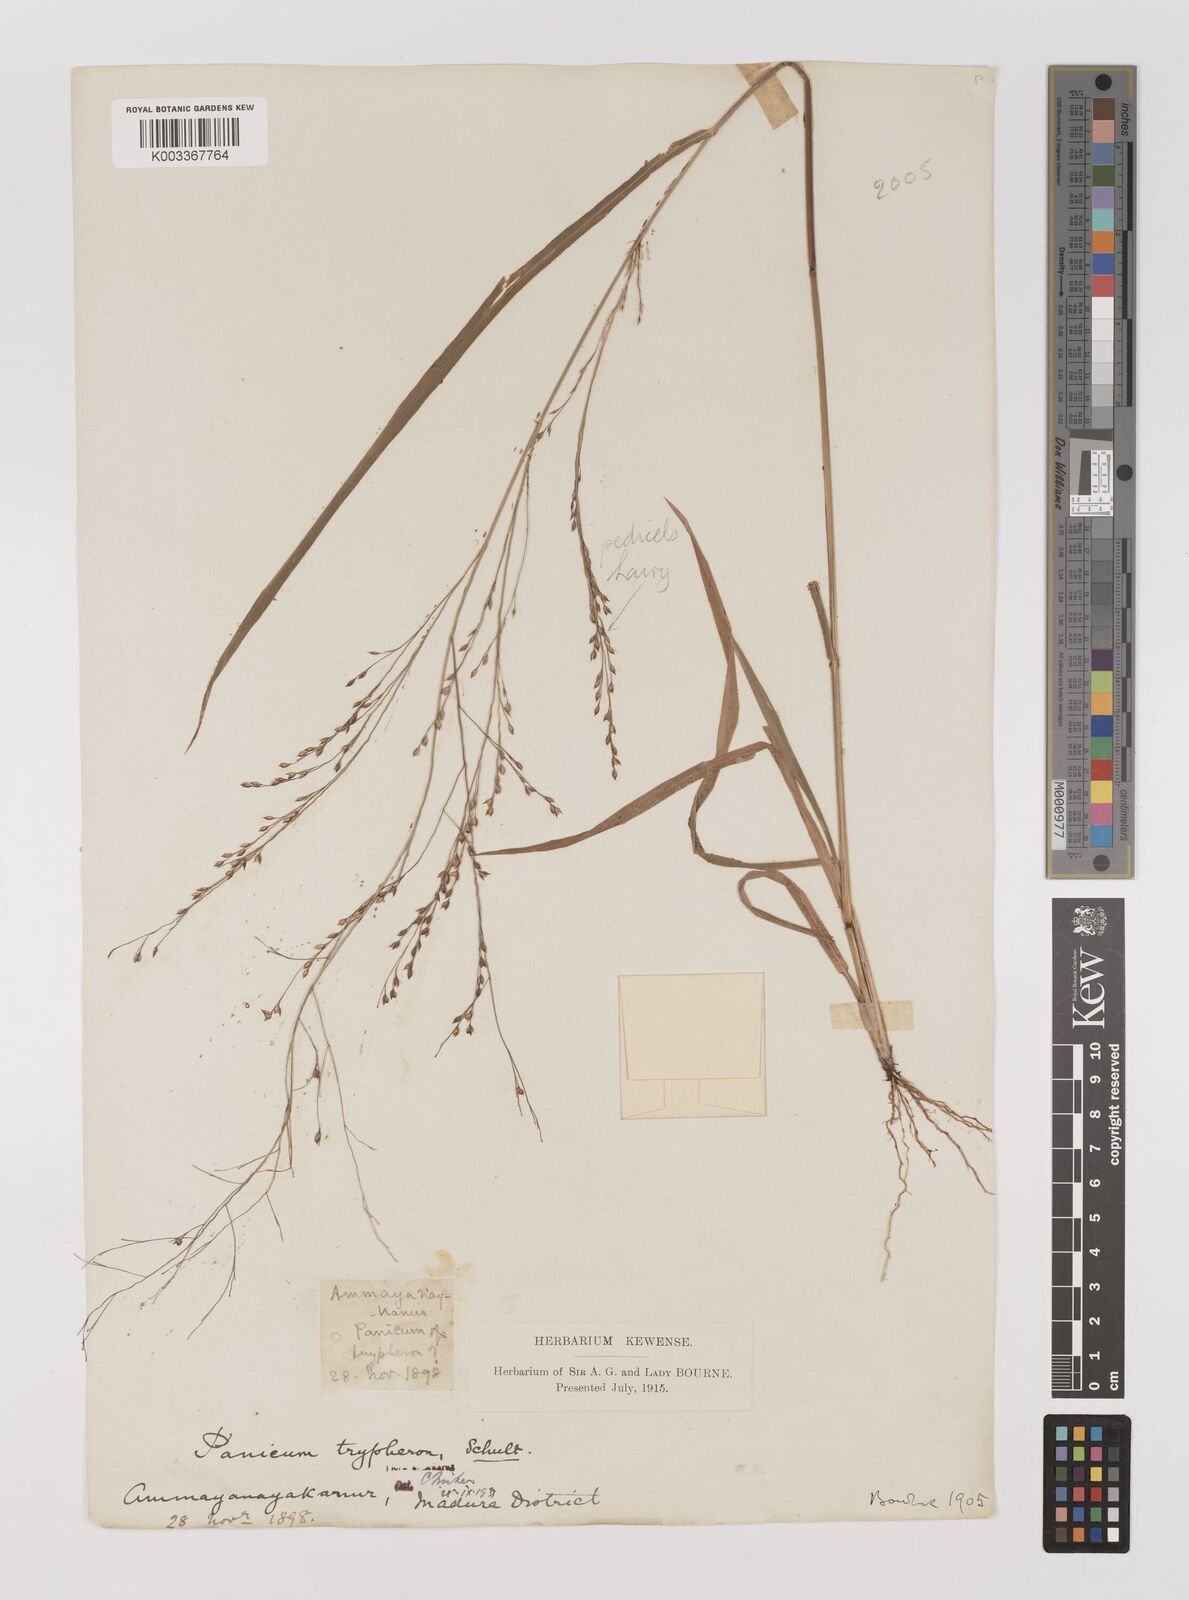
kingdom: Plantae
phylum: Tracheophyta
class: Liliopsida
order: Poales
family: Poaceae
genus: Panicum
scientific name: Panicum curviflorum
